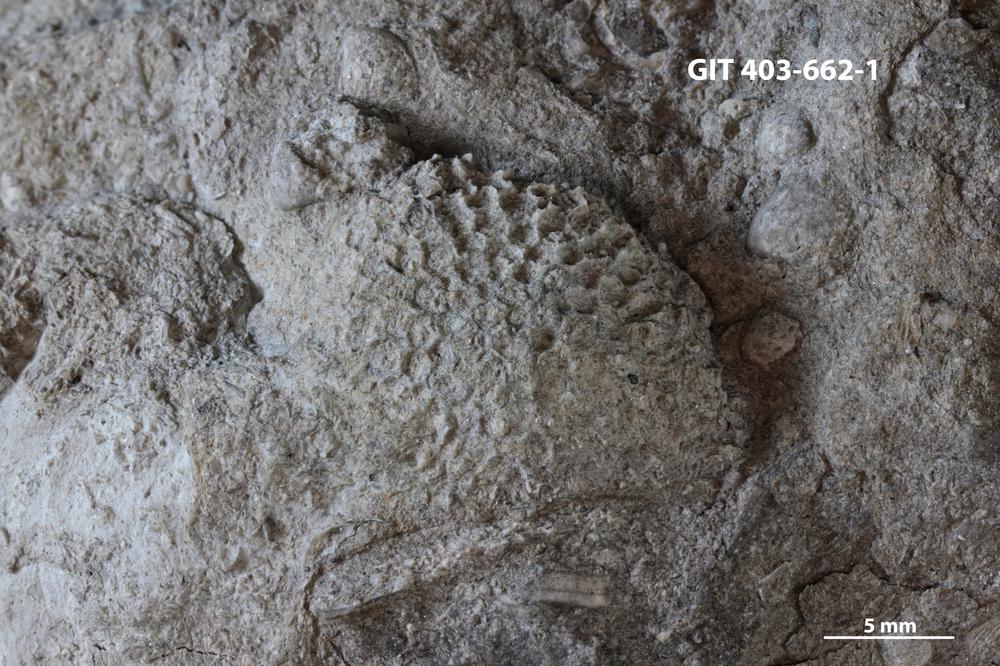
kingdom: Animalia
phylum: Cnidaria
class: Anthozoa
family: Favositidae
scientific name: Favositidae
